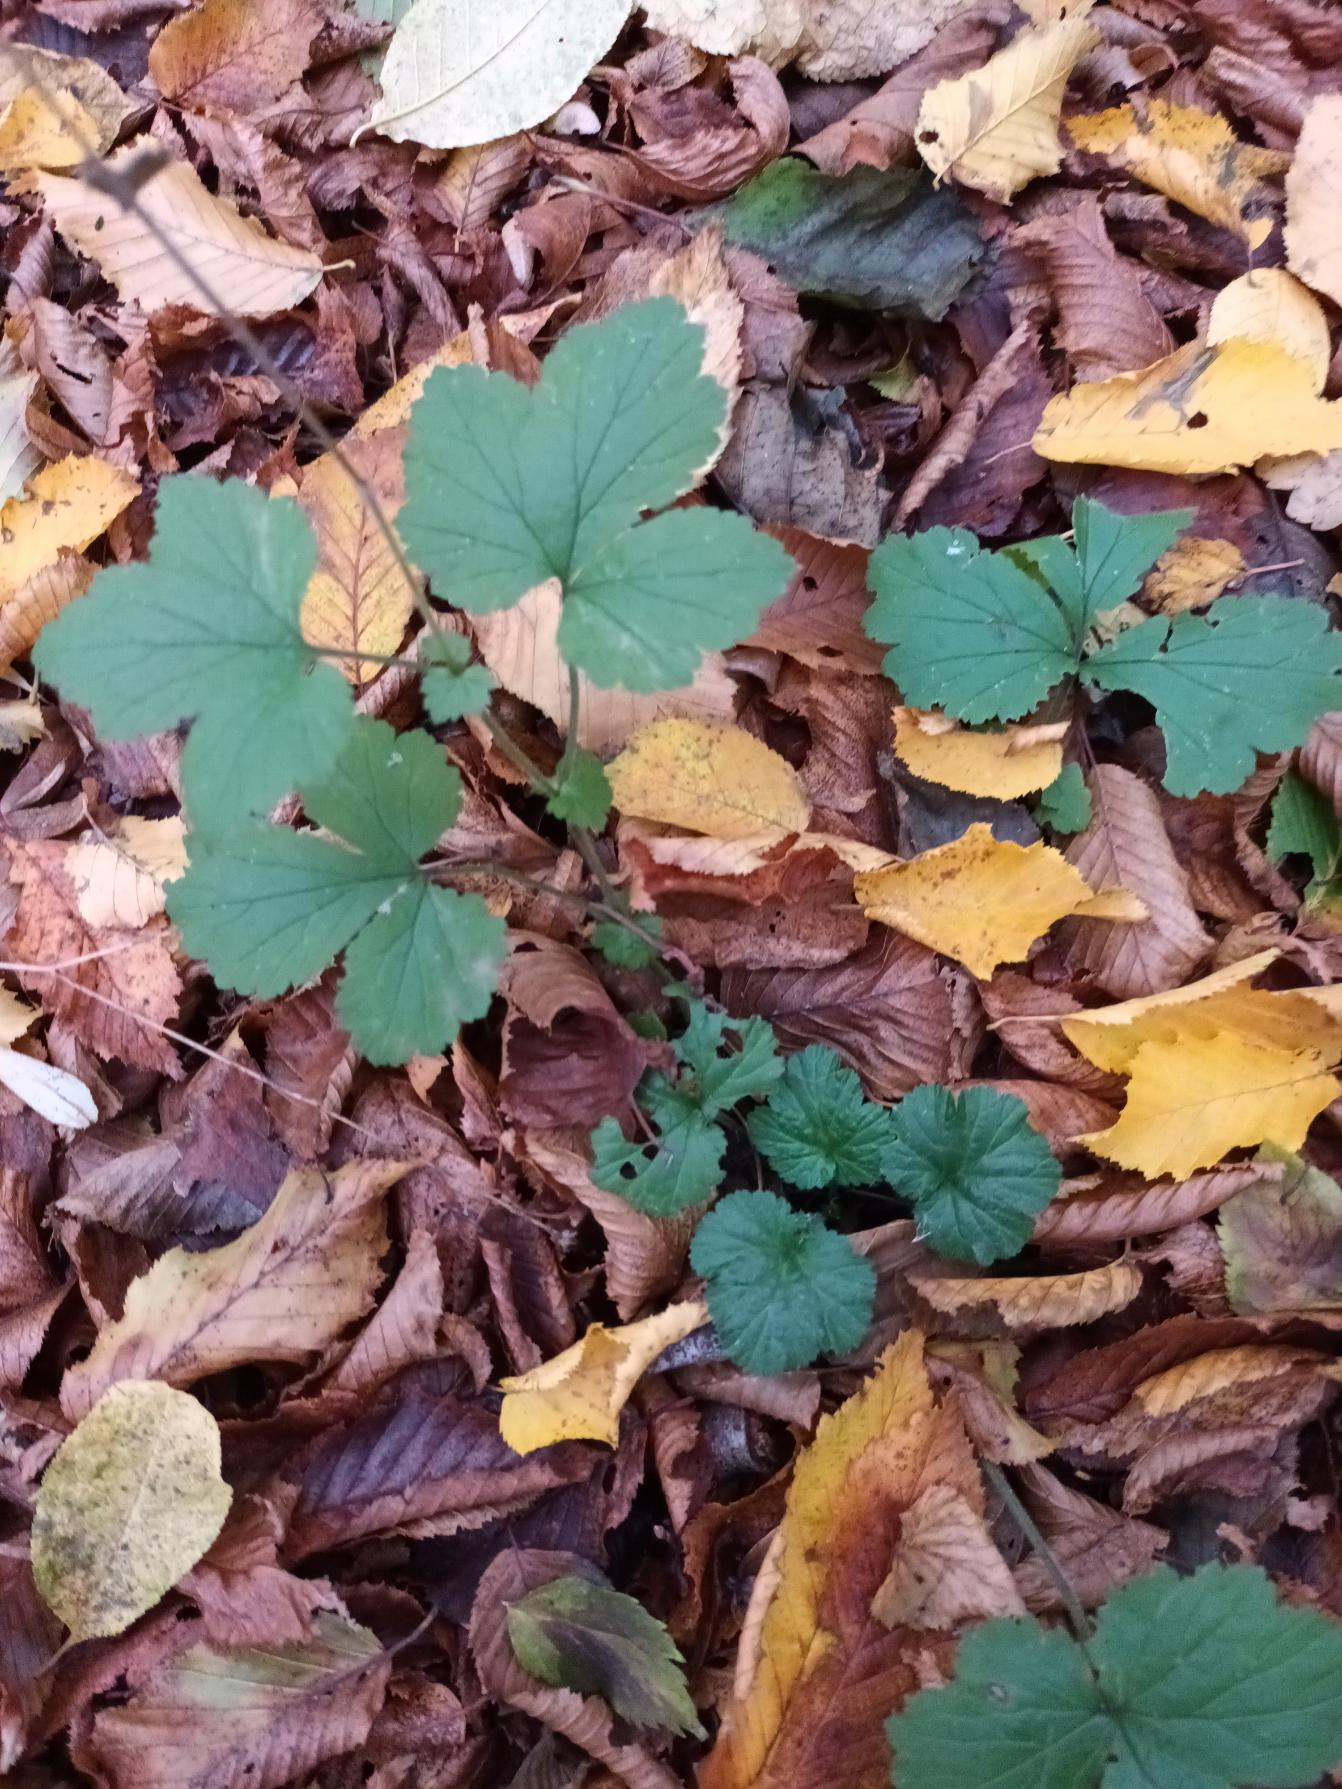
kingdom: Plantae
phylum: Tracheophyta
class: Magnoliopsida
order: Rosales
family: Rosaceae
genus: Geum
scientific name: Geum urbanum
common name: Feber-nellikerod
